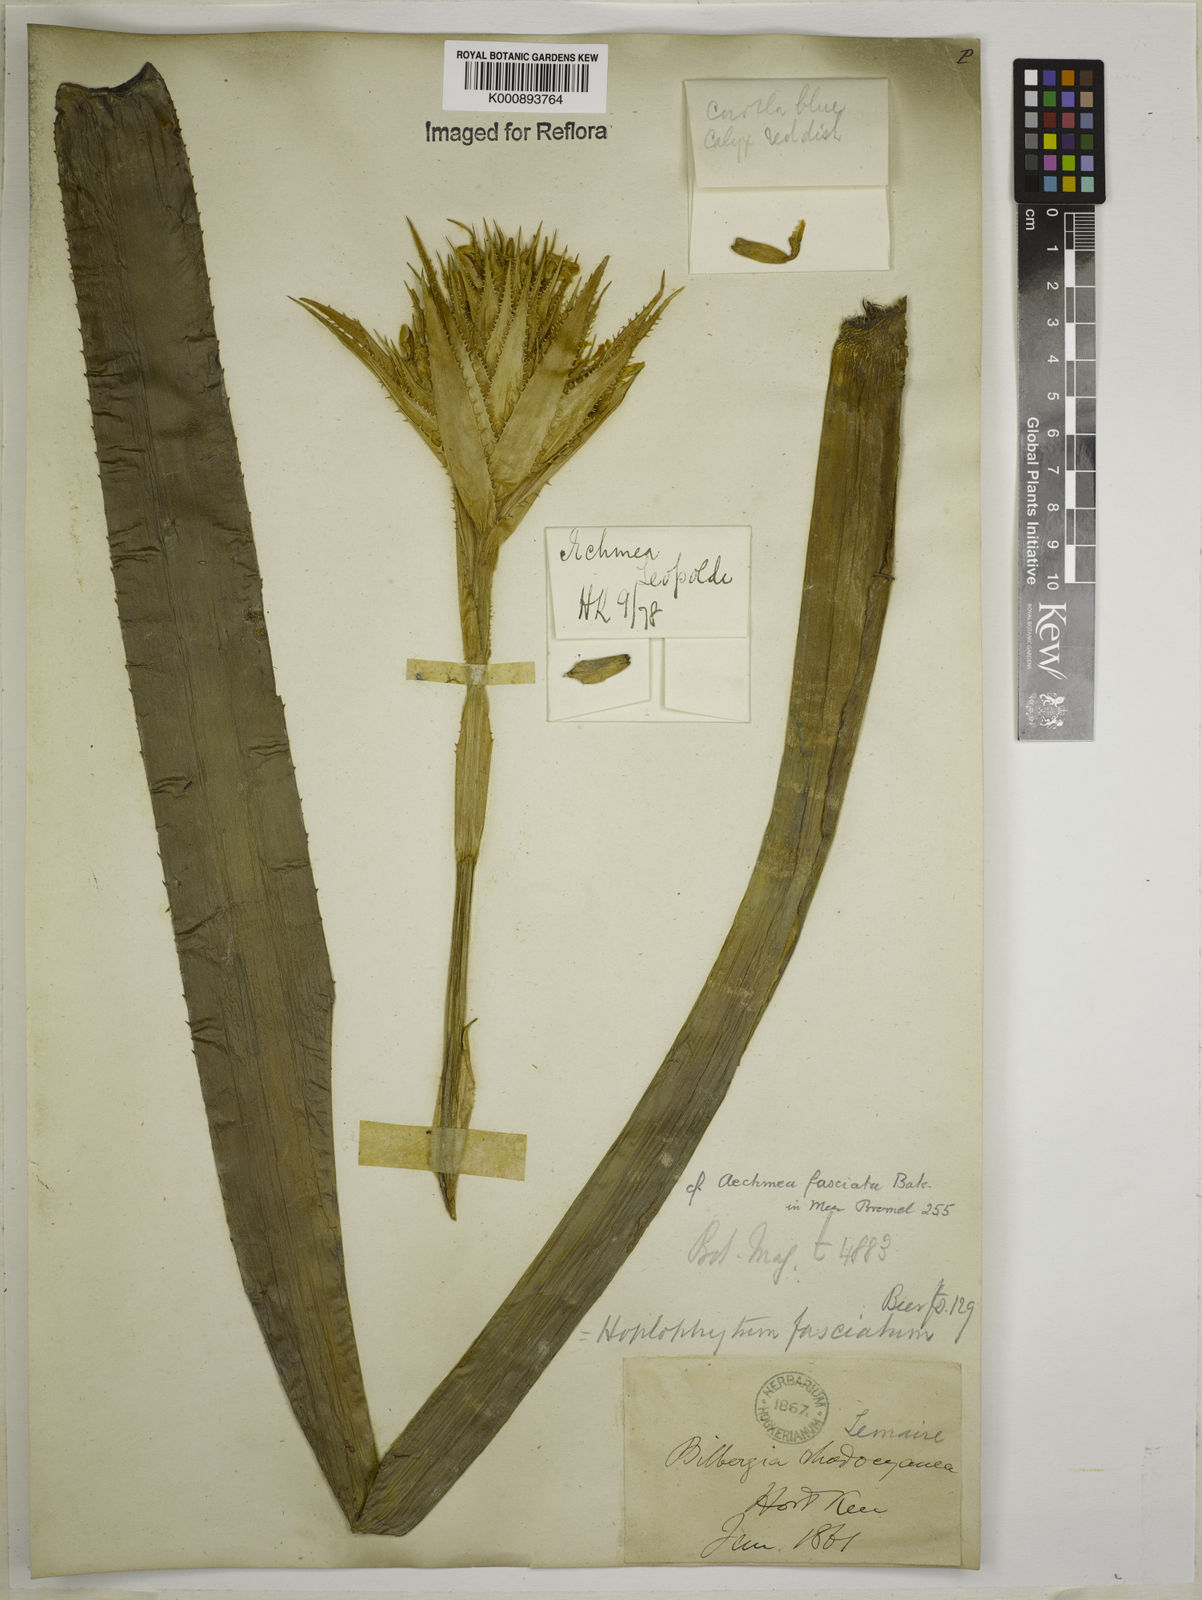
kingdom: Plantae
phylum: Tracheophyta
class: Liliopsida
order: Poales
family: Bromeliaceae
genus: Aechmea
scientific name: Aechmea fasciata
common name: Urnplant
